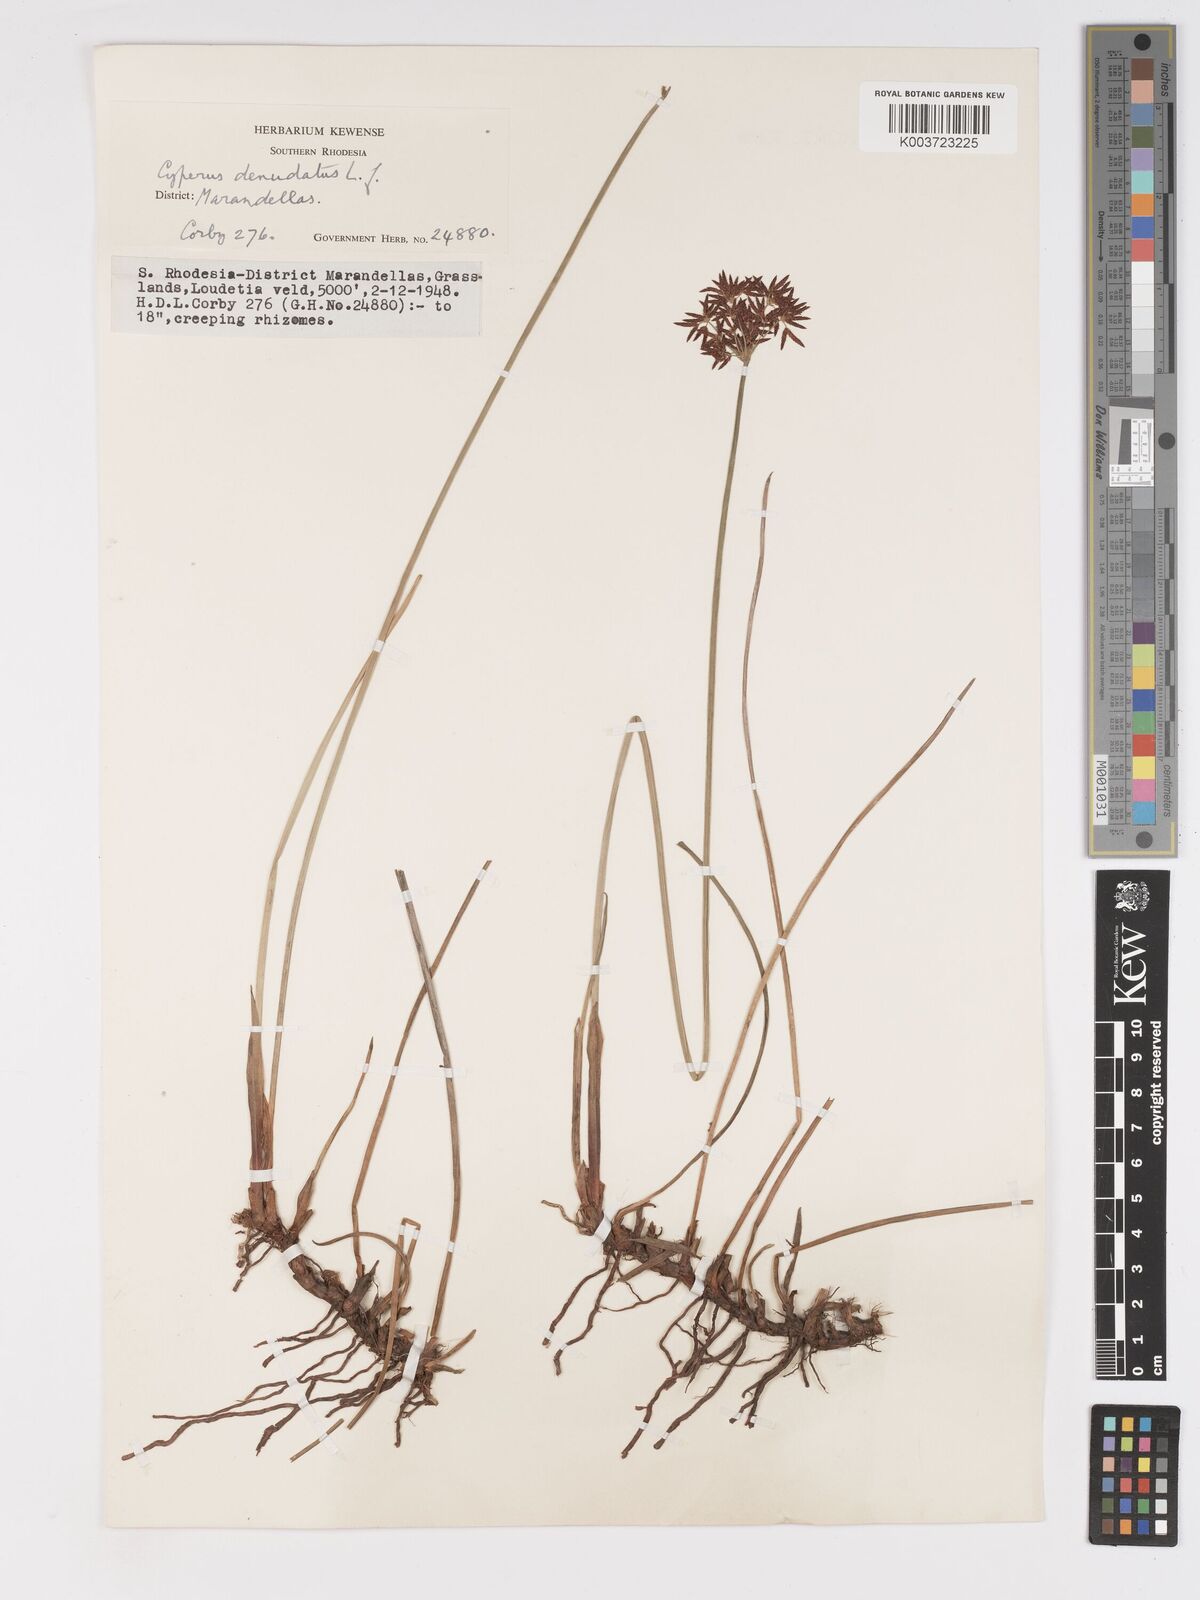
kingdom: Plantae
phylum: Tracheophyta
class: Liliopsida
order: Poales
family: Cyperaceae
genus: Cyperus
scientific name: Cyperus haspan
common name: Haspan flatsedge
